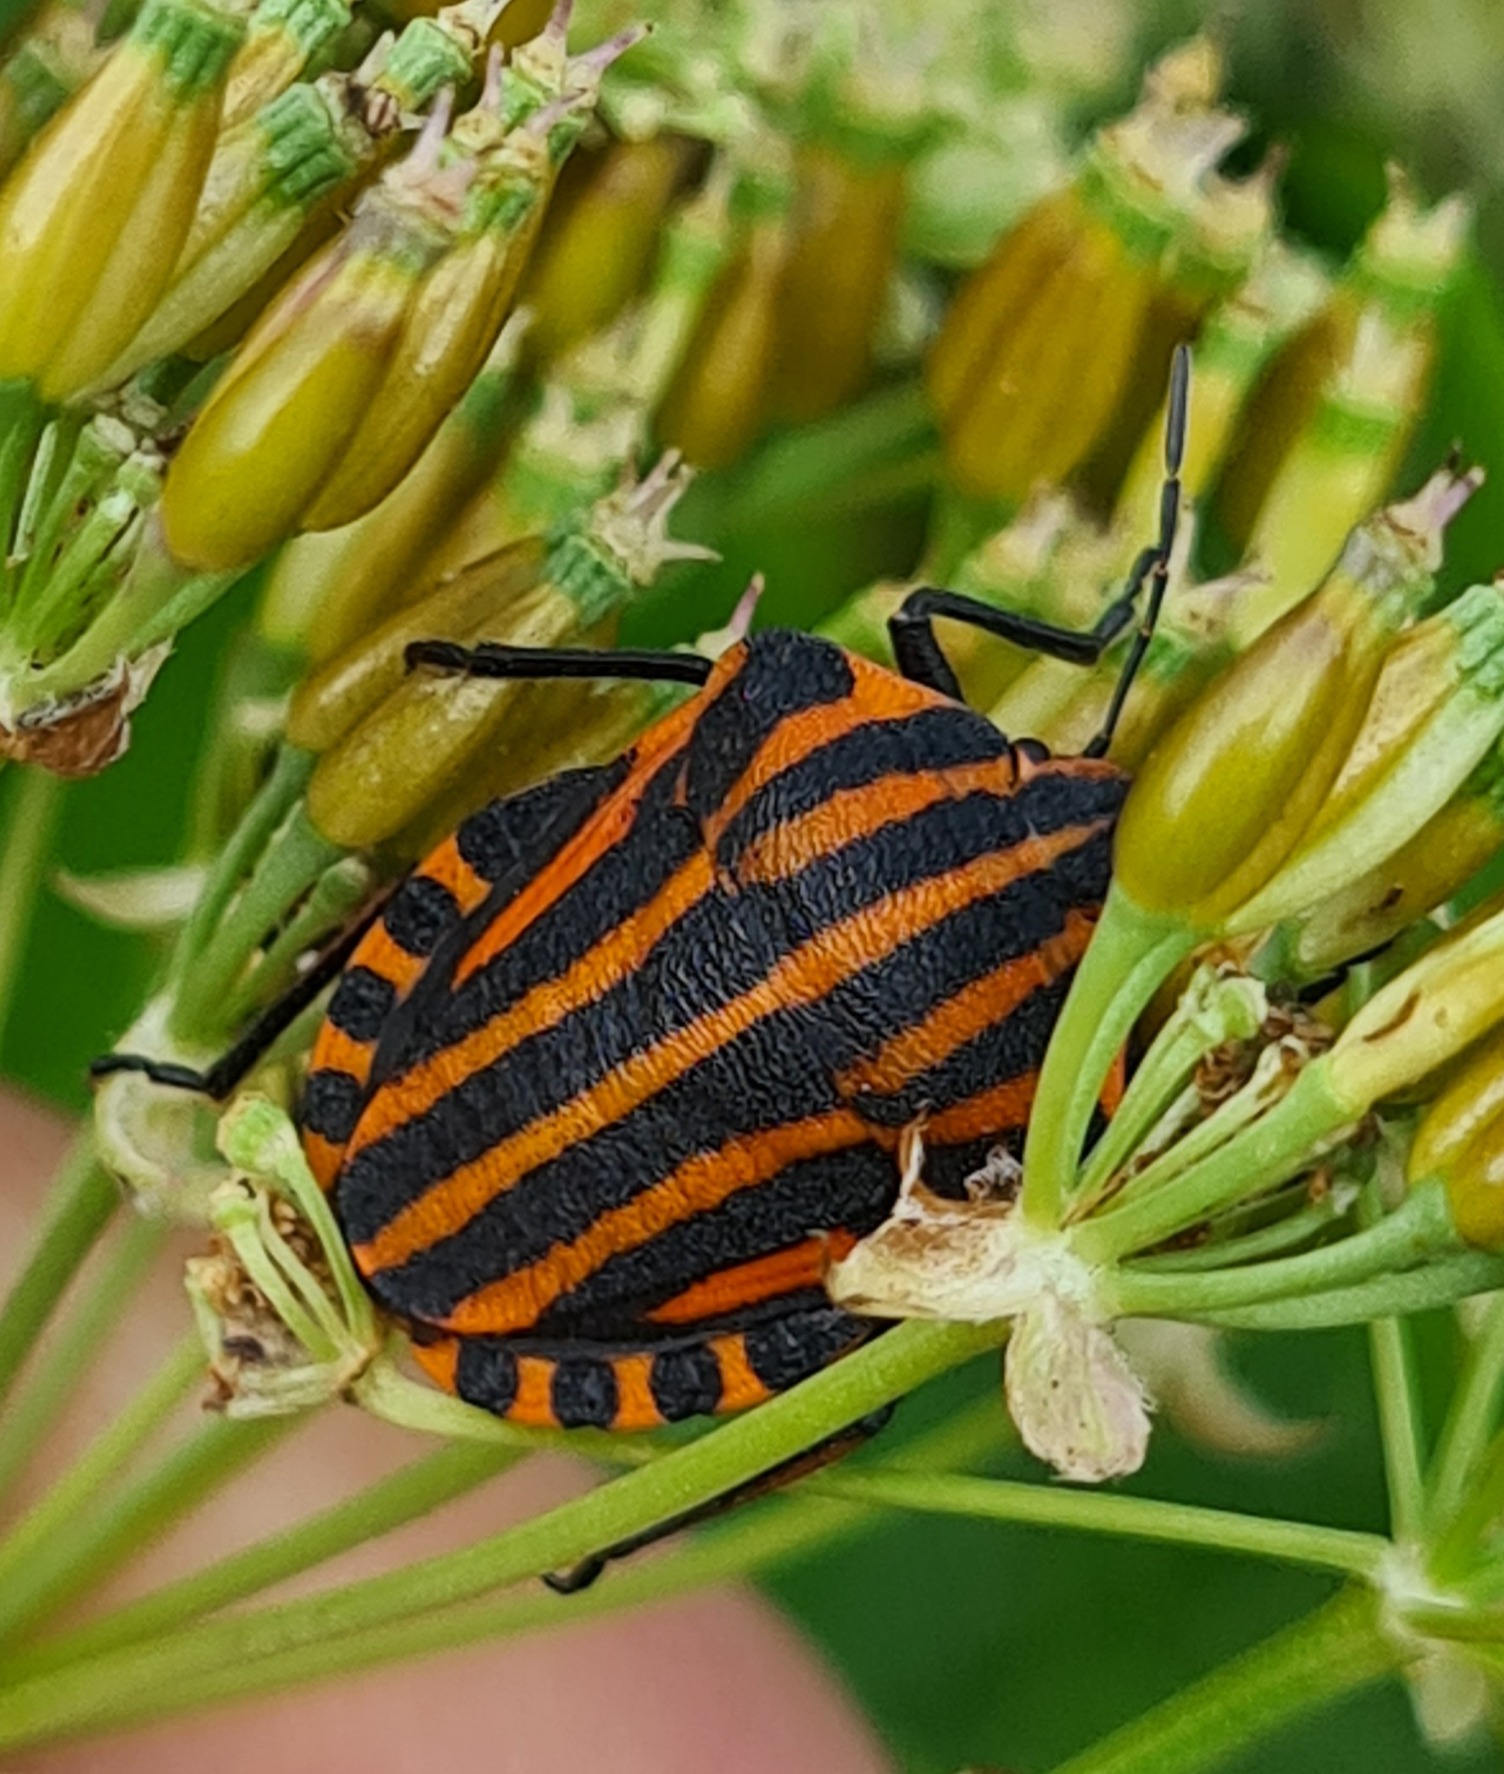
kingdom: Animalia
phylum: Arthropoda
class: Insecta
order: Hemiptera
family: Pentatomidae
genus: Graphosoma
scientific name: Graphosoma italicum
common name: Stribetæge
